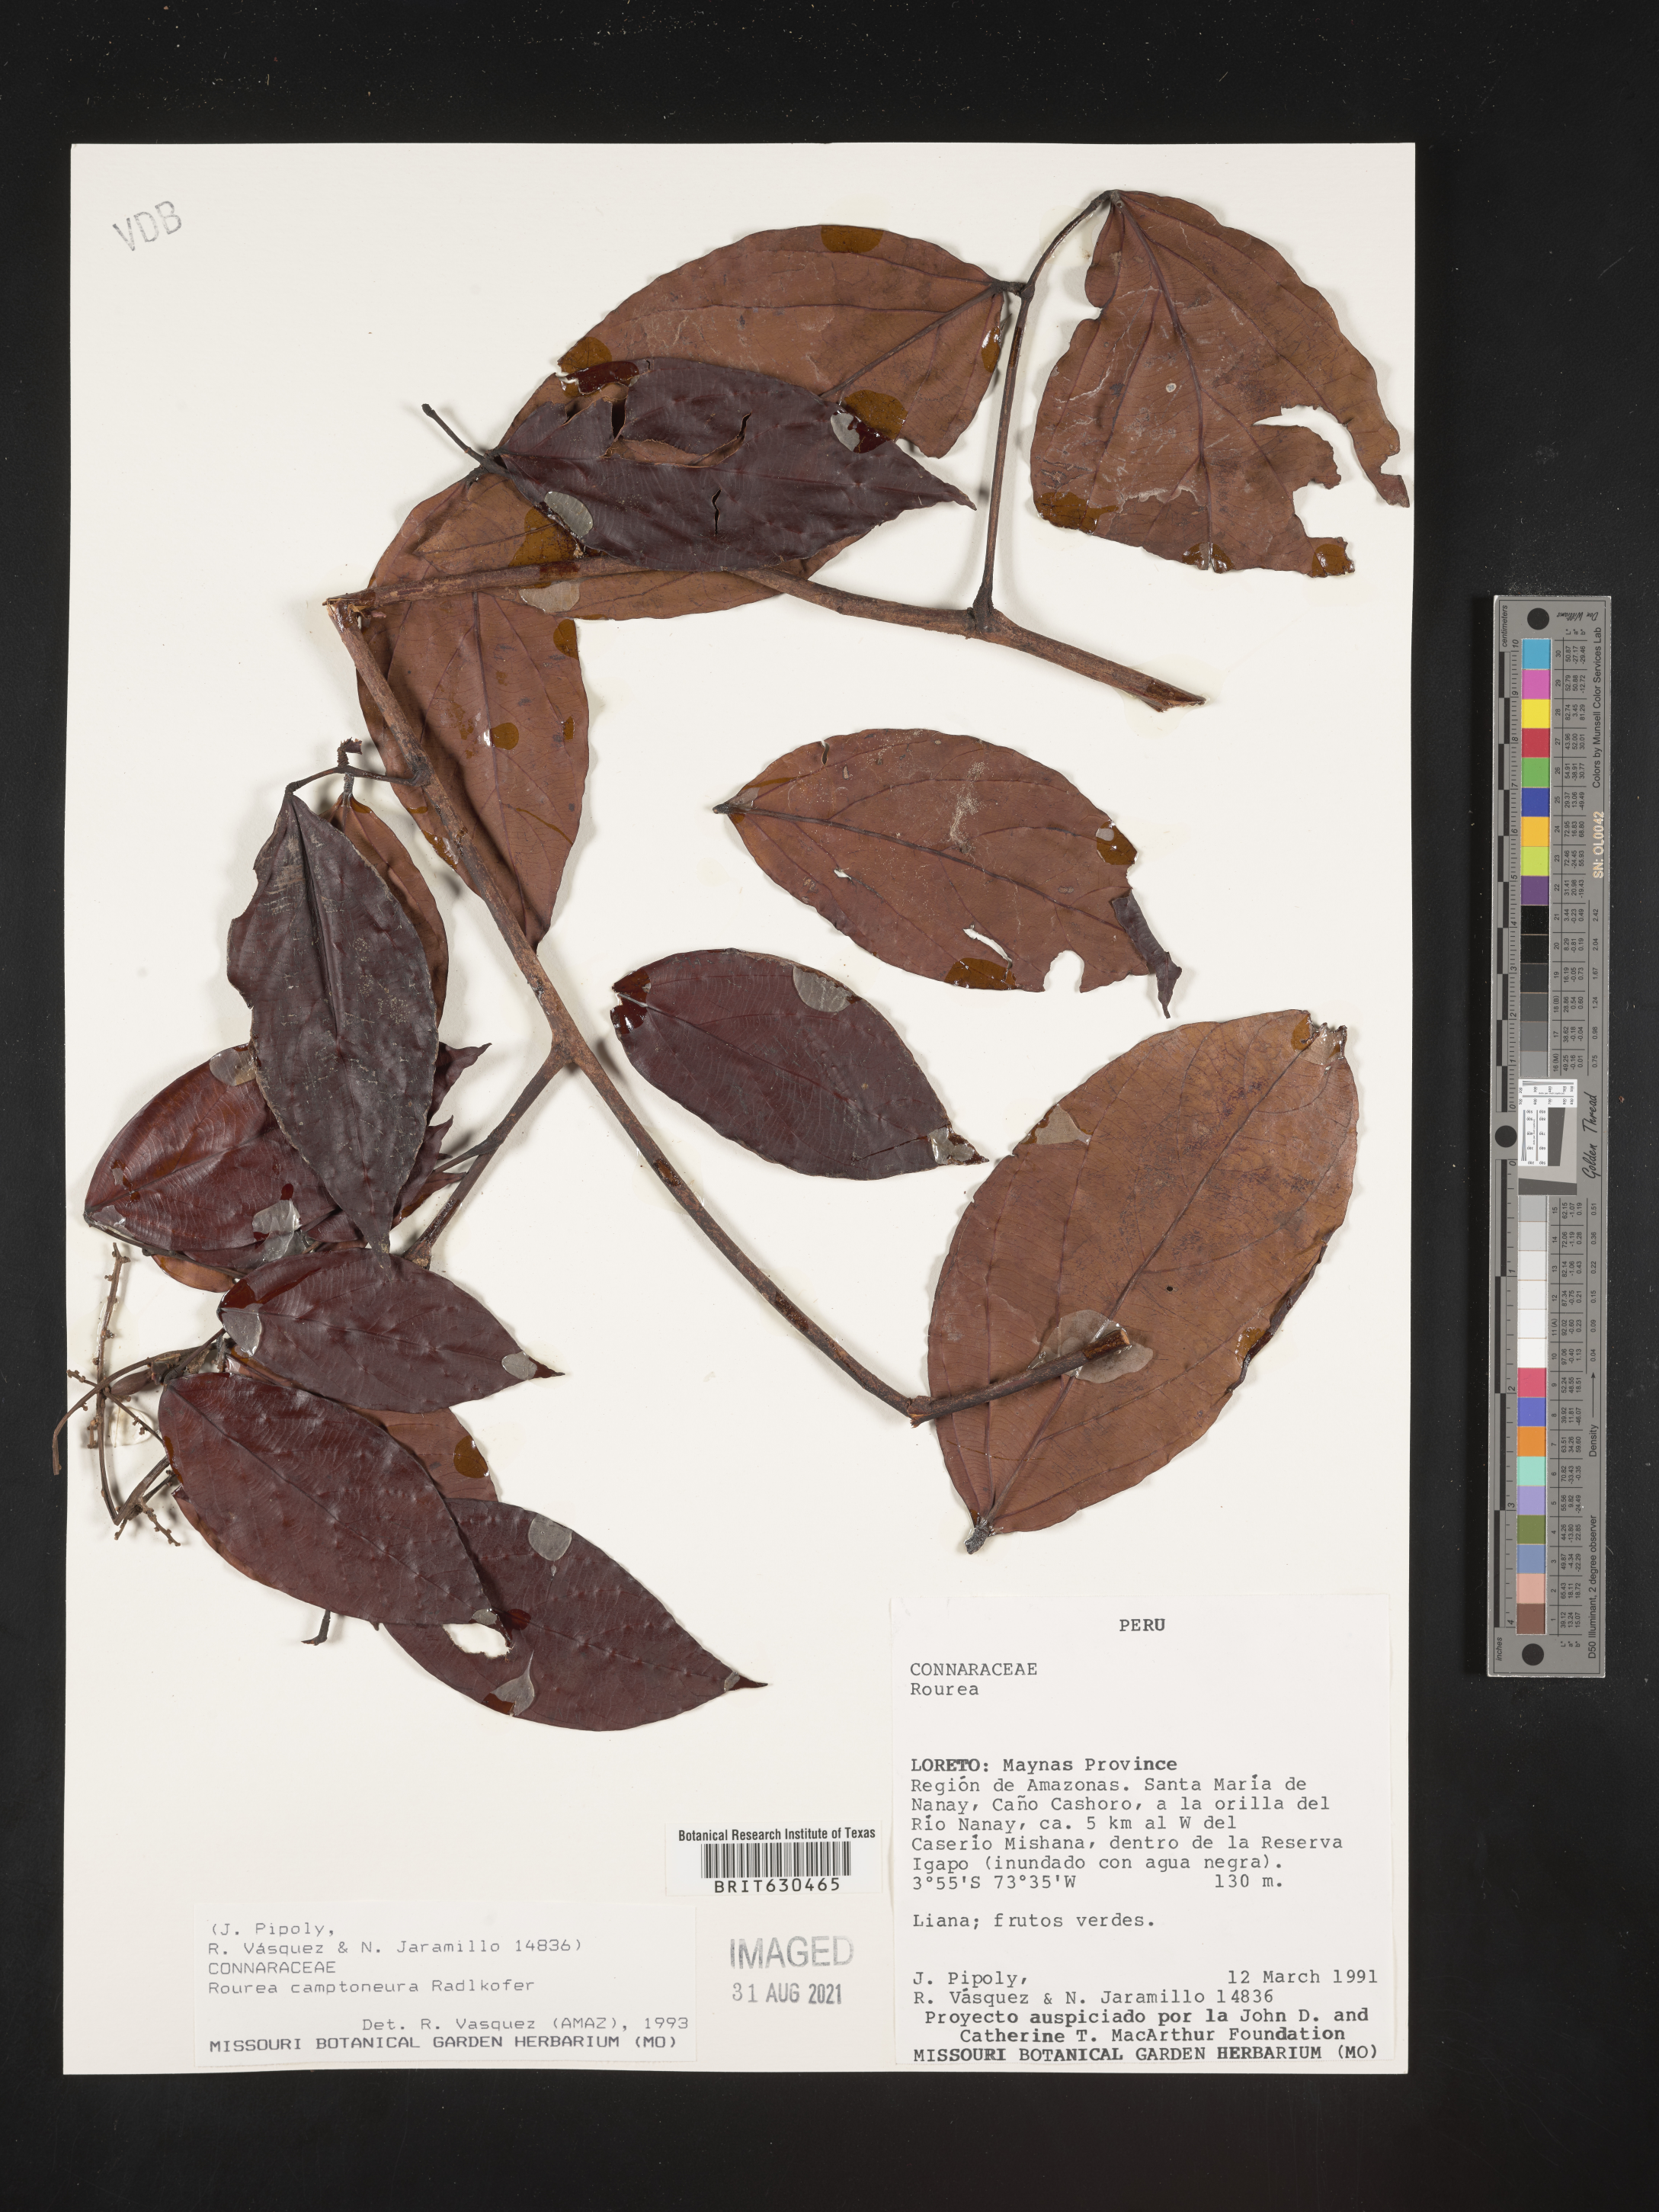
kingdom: Plantae
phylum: Tracheophyta
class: Magnoliopsida
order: Oxalidales
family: Connaraceae
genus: Rourea
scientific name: Rourea camptoneura
